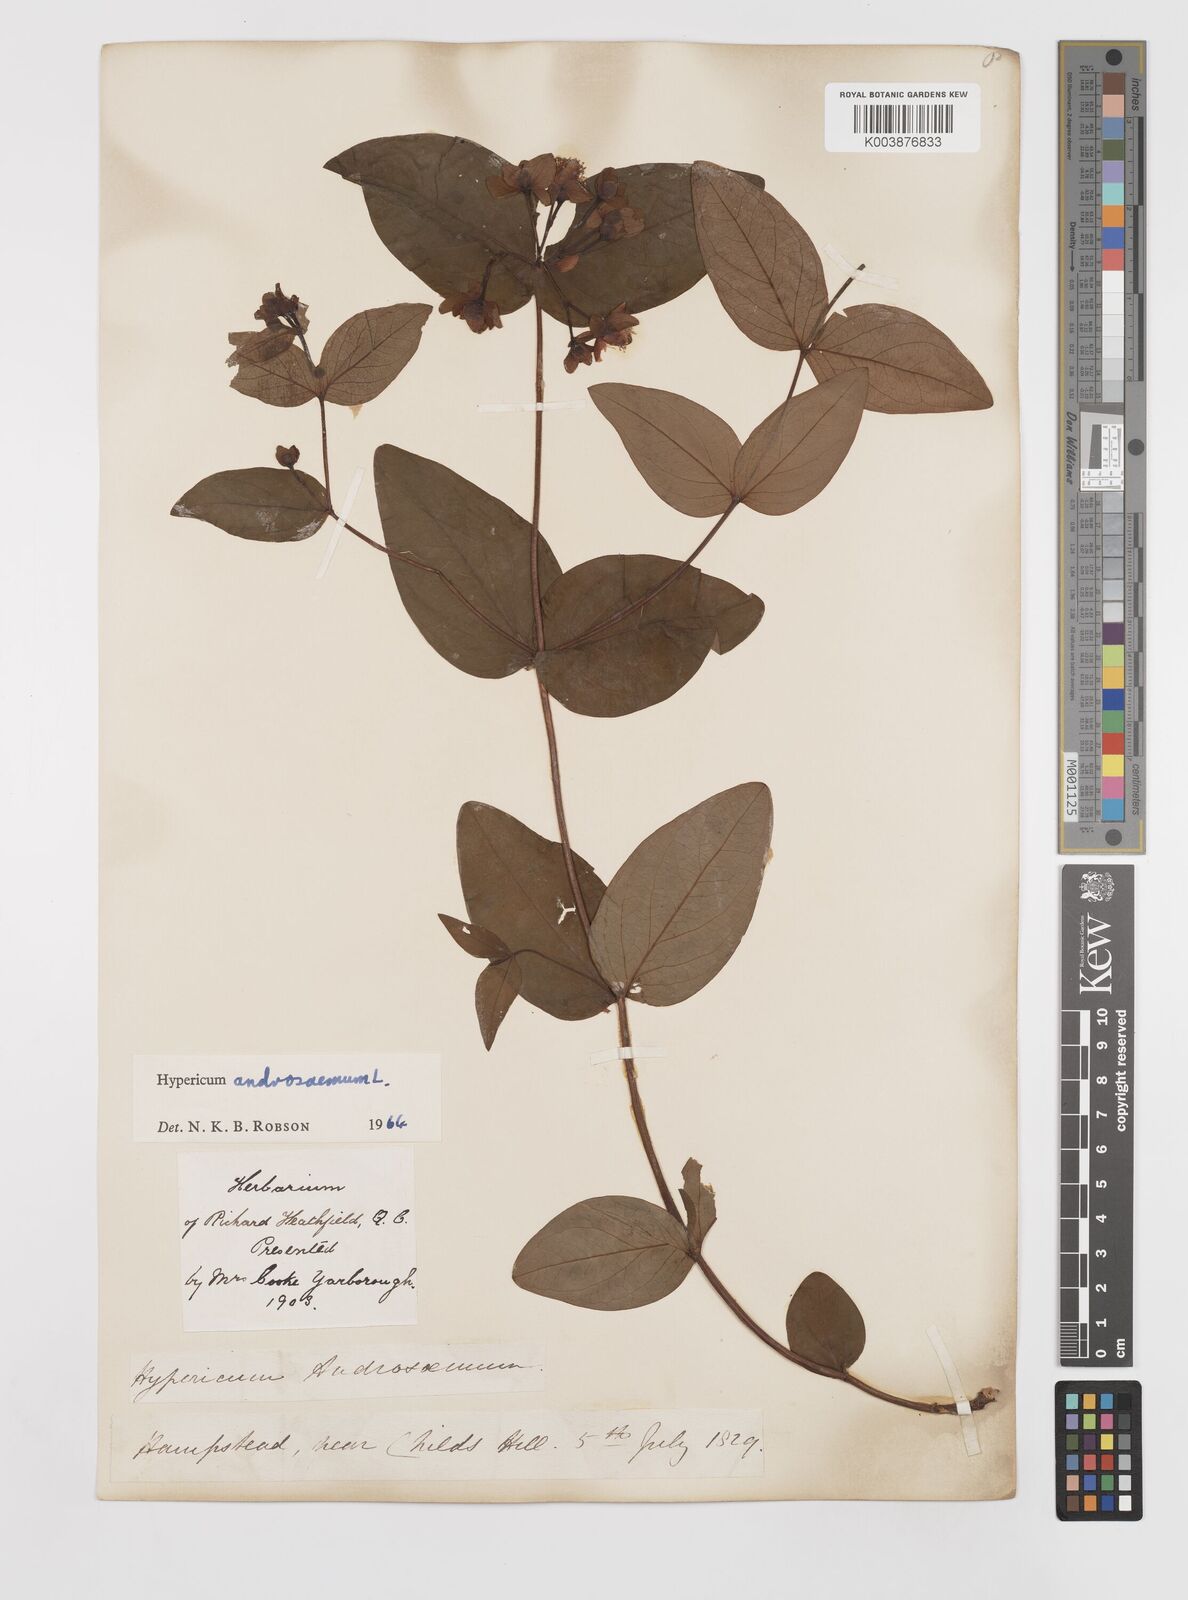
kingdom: Plantae
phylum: Tracheophyta
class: Magnoliopsida
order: Malpighiales
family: Hypericaceae
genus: Hypericum
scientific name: Hypericum androsaemum
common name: Sweet-amber
